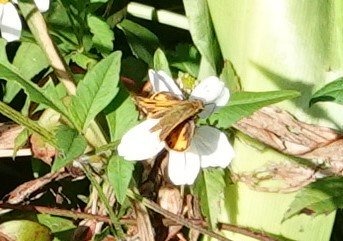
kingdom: Animalia
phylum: Arthropoda
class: Insecta
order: Lepidoptera
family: Hesperiidae
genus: Hylephila
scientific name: Hylephila phyleus
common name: Fiery Skipper
